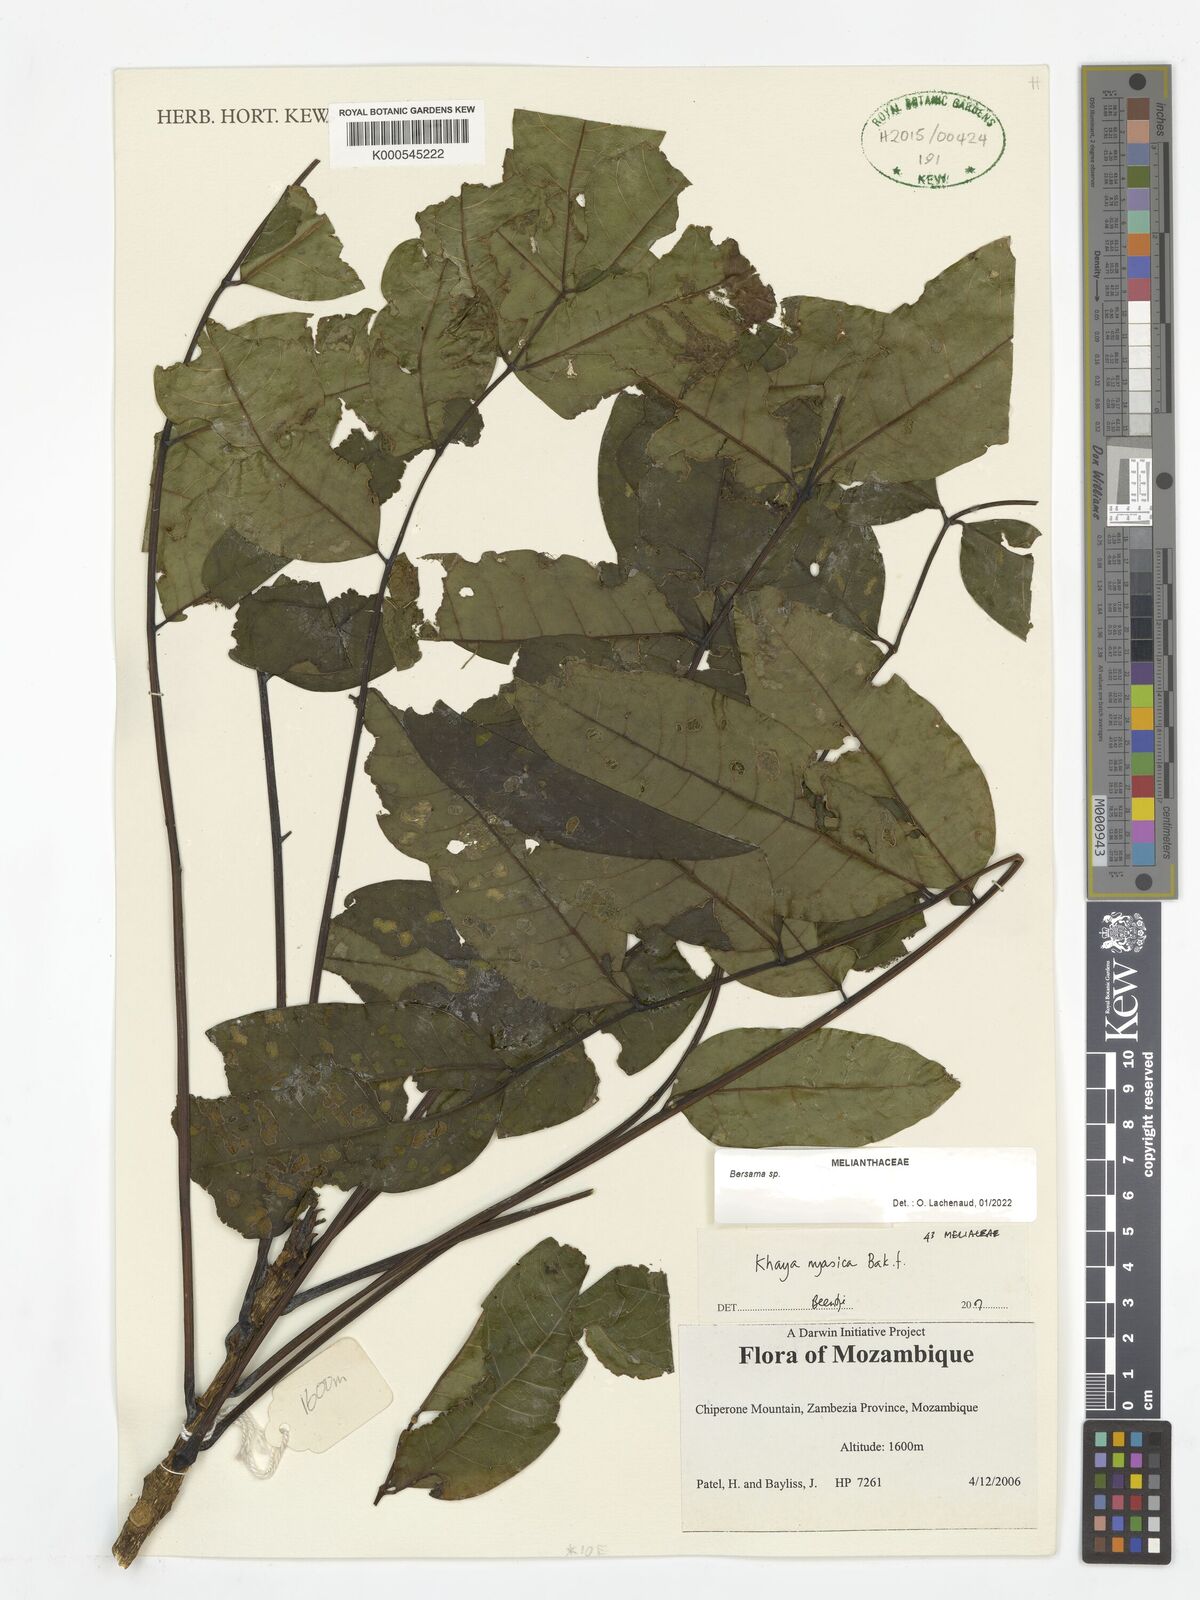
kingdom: Plantae
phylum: Tracheophyta
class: Magnoliopsida
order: Sapindales
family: Meliaceae
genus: Khaya
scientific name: Khaya nyasica
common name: Nyasaland mahogany
